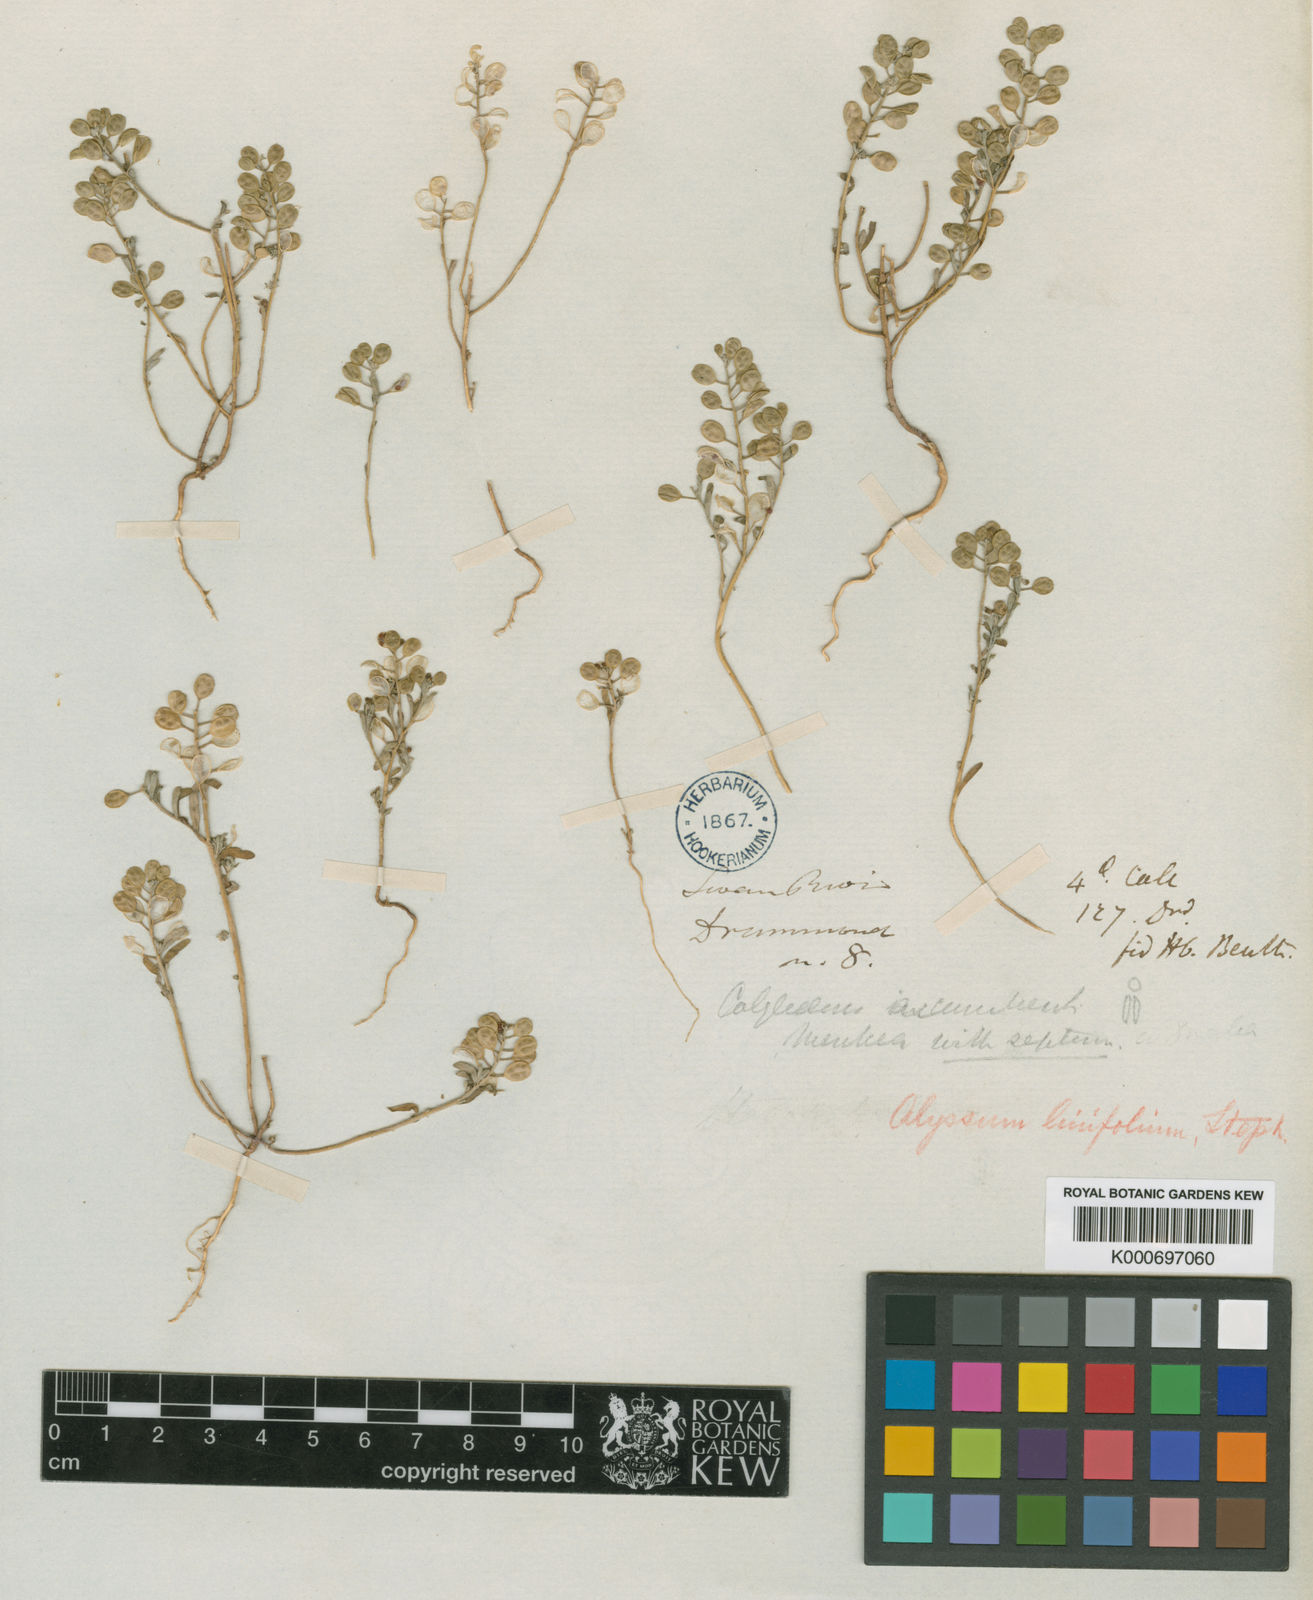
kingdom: Plantae
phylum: Tracheophyta
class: Magnoliopsida
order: Brassicales
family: Brassicaceae
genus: Meniocus
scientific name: Meniocus linifolius
